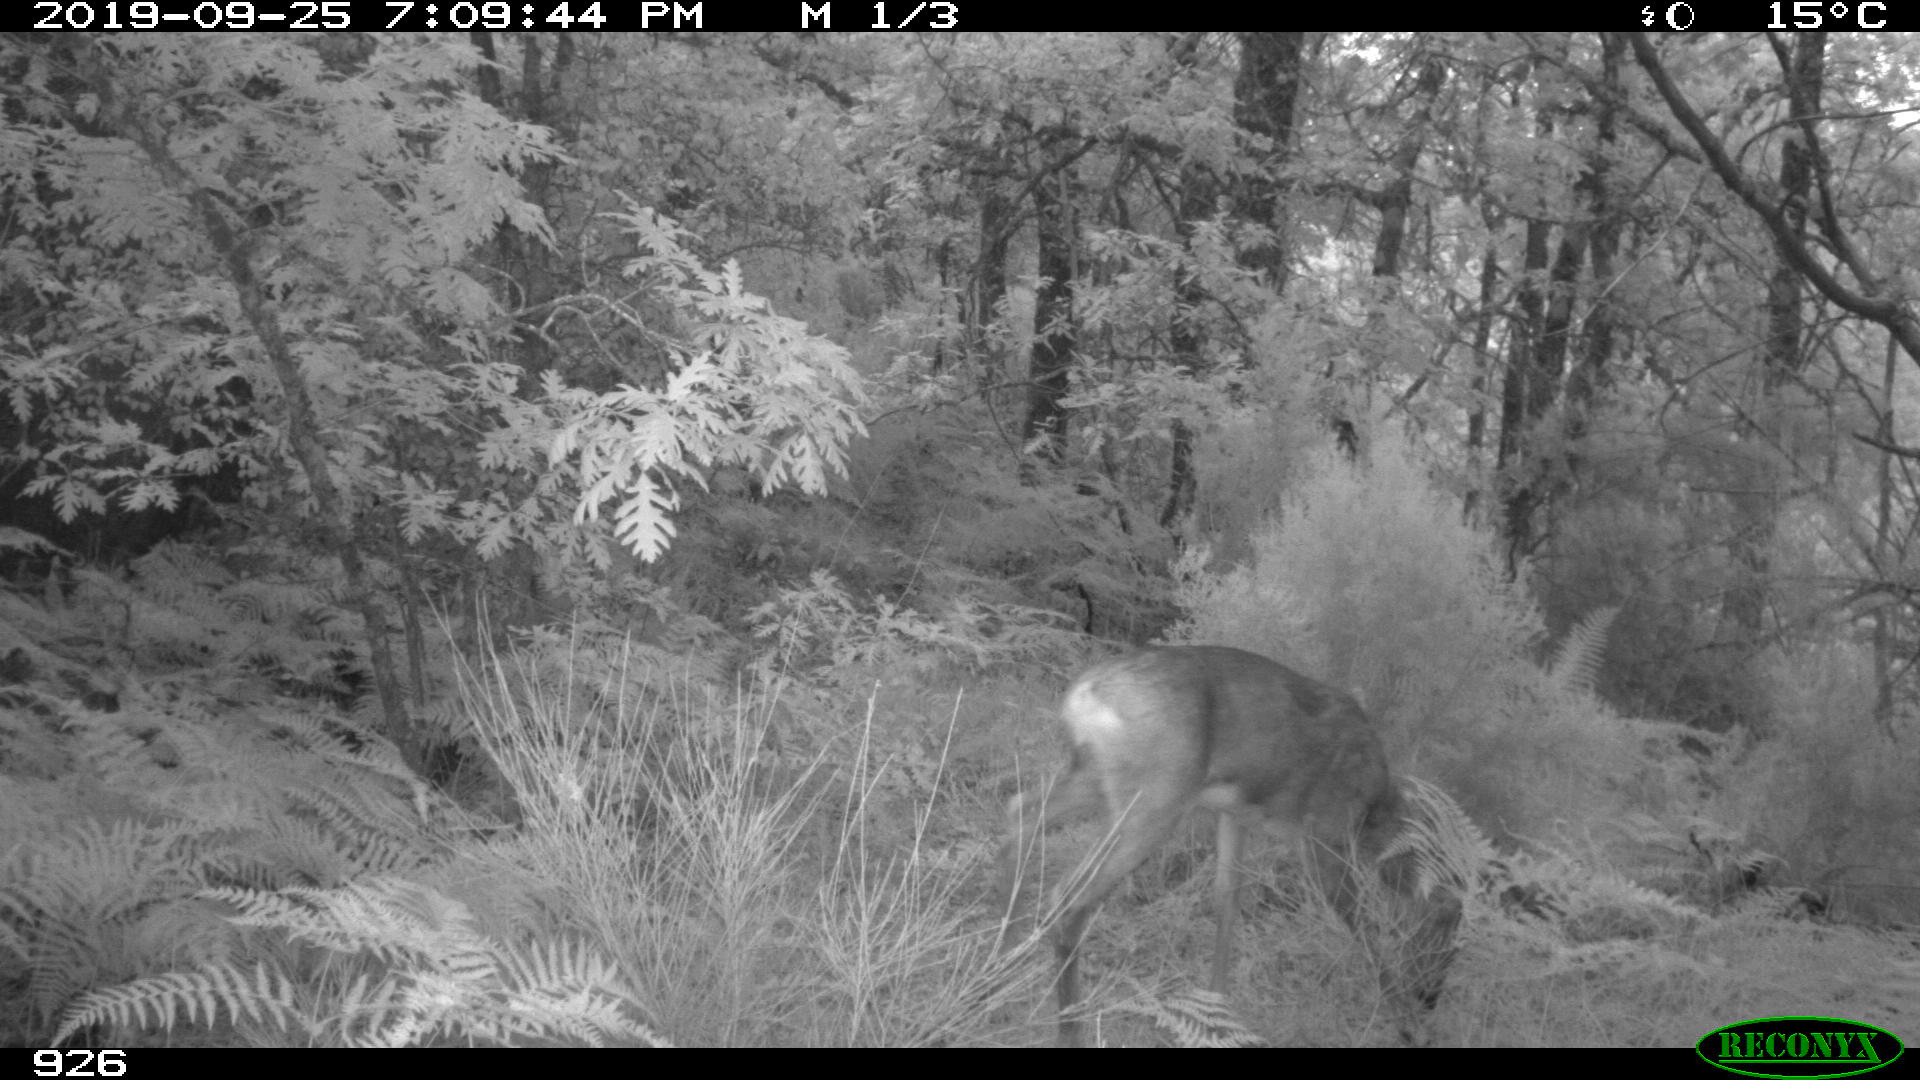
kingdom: Animalia
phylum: Chordata
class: Mammalia
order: Artiodactyla
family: Cervidae
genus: Capreolus
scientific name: Capreolus capreolus
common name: Western roe deer
